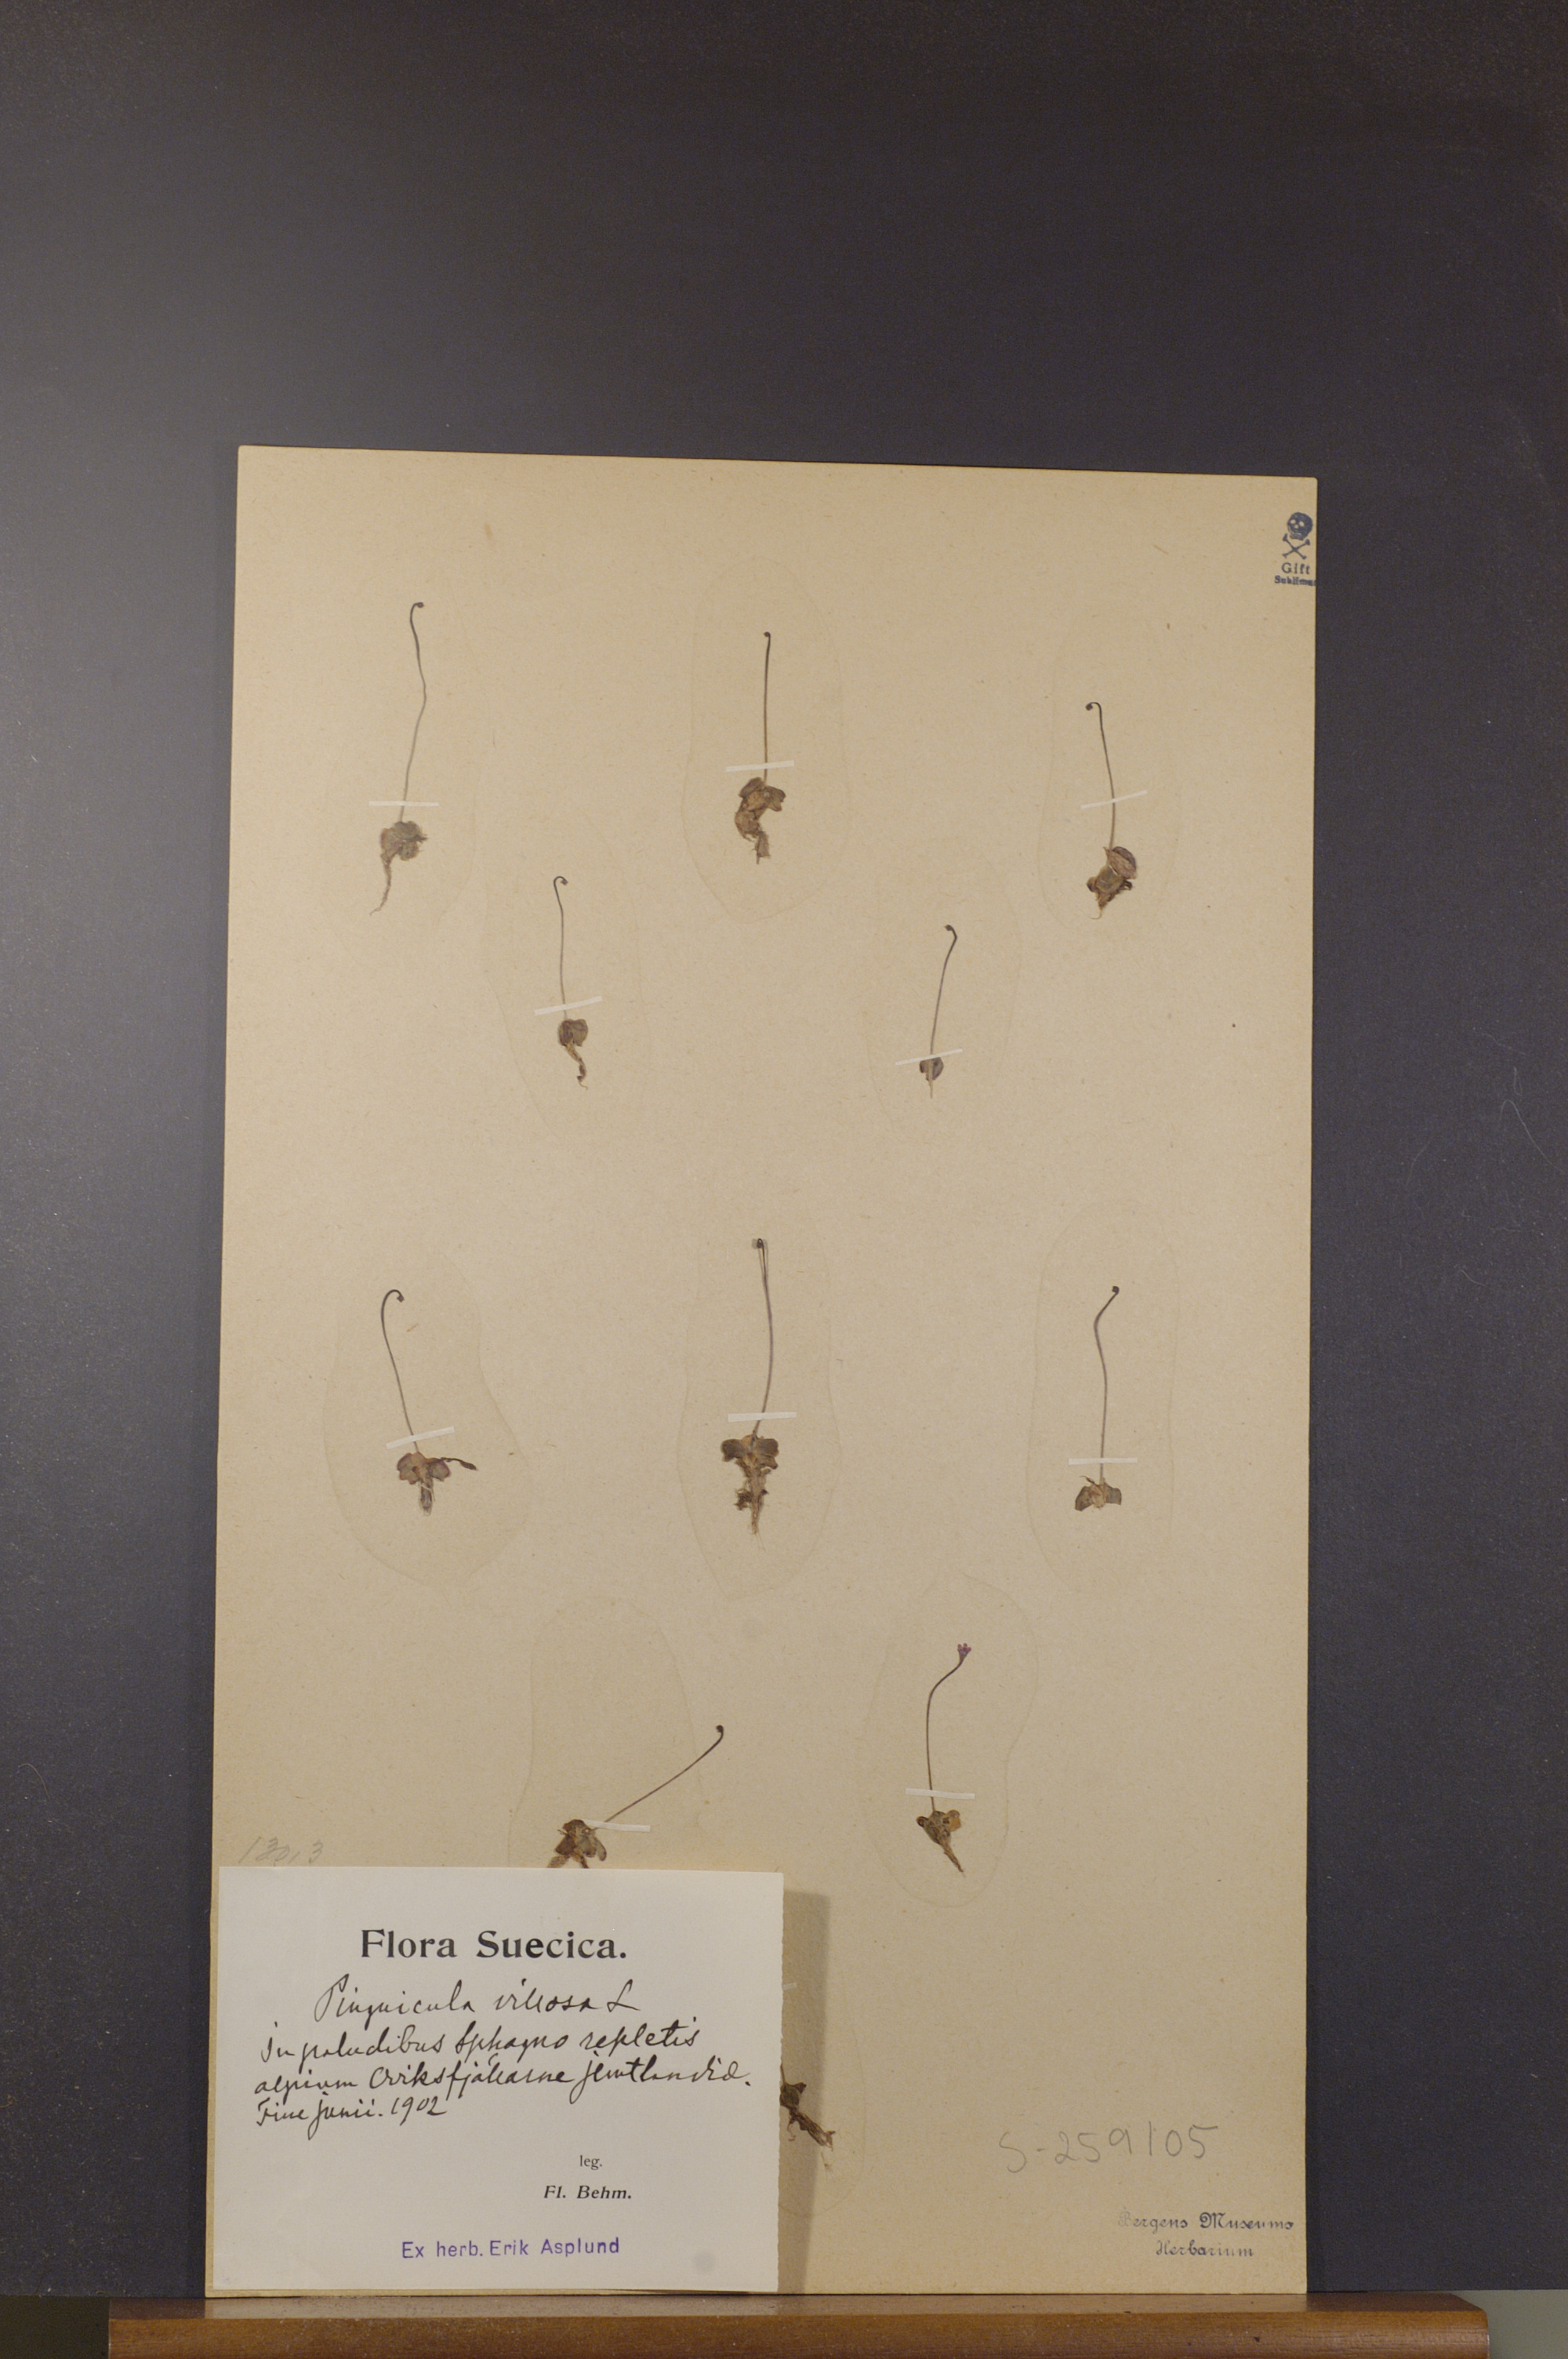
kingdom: Plantae
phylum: Tracheophyta
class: Magnoliopsida
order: Lamiales
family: Lentibulariaceae
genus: Pinguicula
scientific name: Pinguicula villosa
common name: Hairy butterwort
